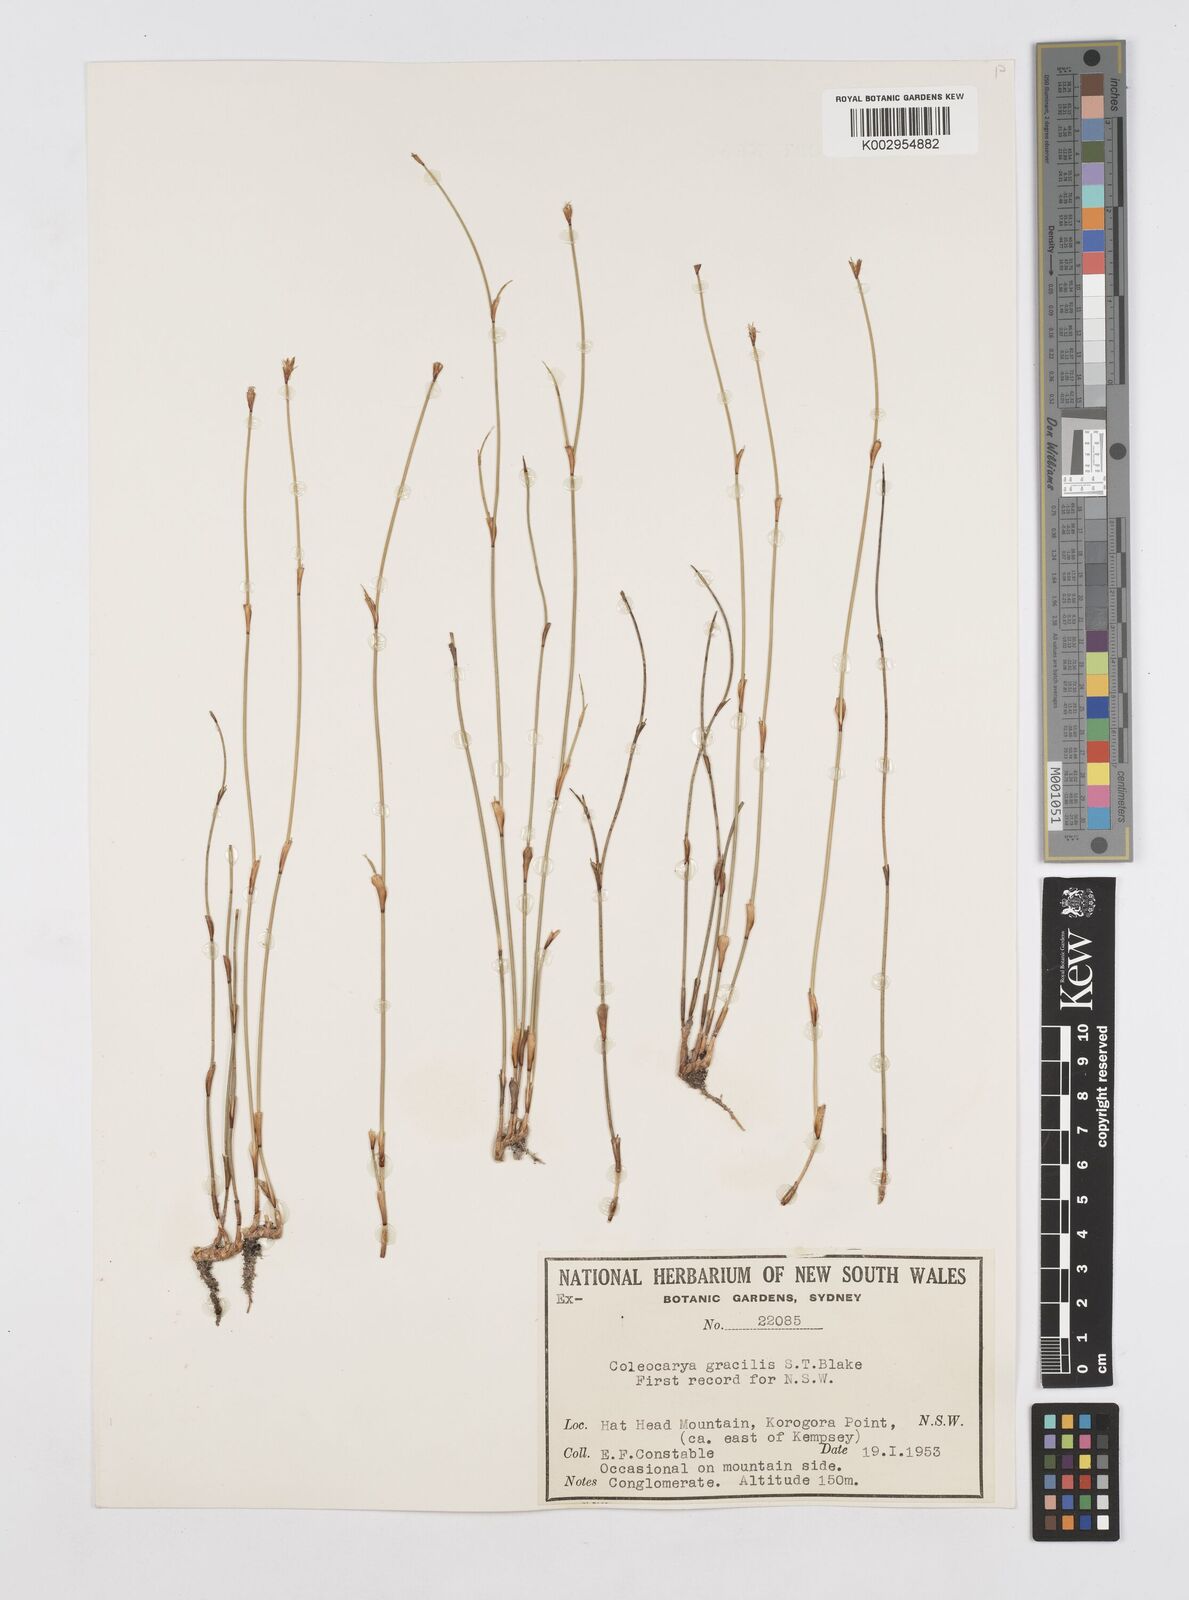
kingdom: Plantae
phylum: Tracheophyta
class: Liliopsida
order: Poales
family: Restionaceae
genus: Coleocarya
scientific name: Coleocarya gracilis
